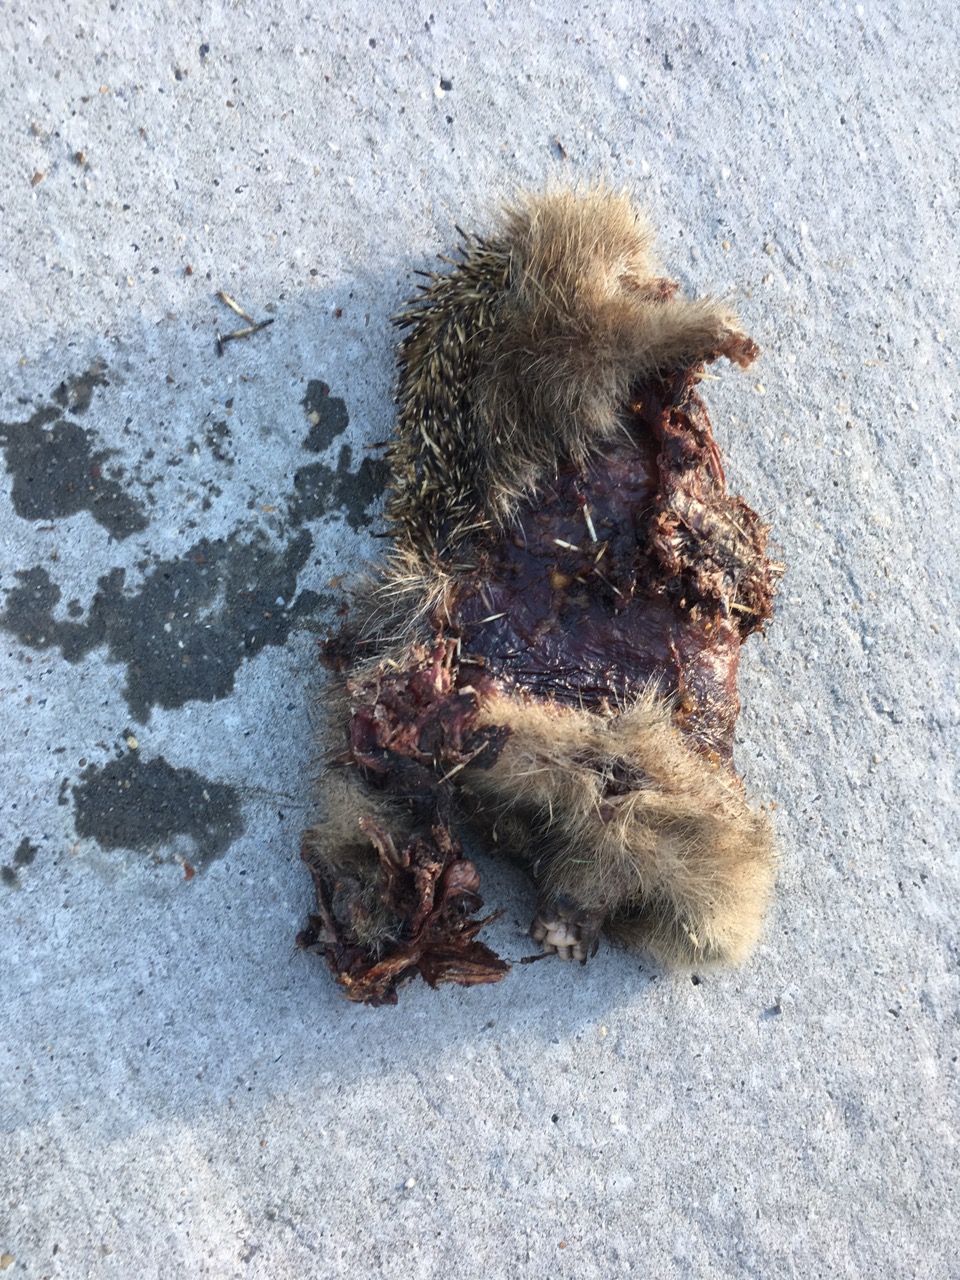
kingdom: Animalia
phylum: Chordata
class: Mammalia
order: Erinaceomorpha
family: Erinaceidae
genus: Erinaceus
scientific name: Erinaceus
